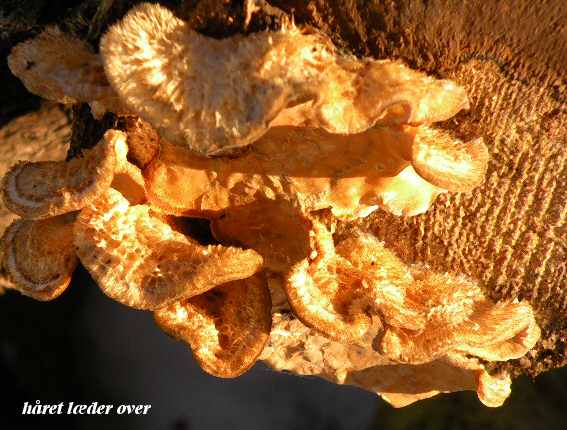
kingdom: Fungi
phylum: Basidiomycota
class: Agaricomycetes
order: Russulales
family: Stereaceae
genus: Stereum
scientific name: Stereum hirsutum
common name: håret lædersvamp
